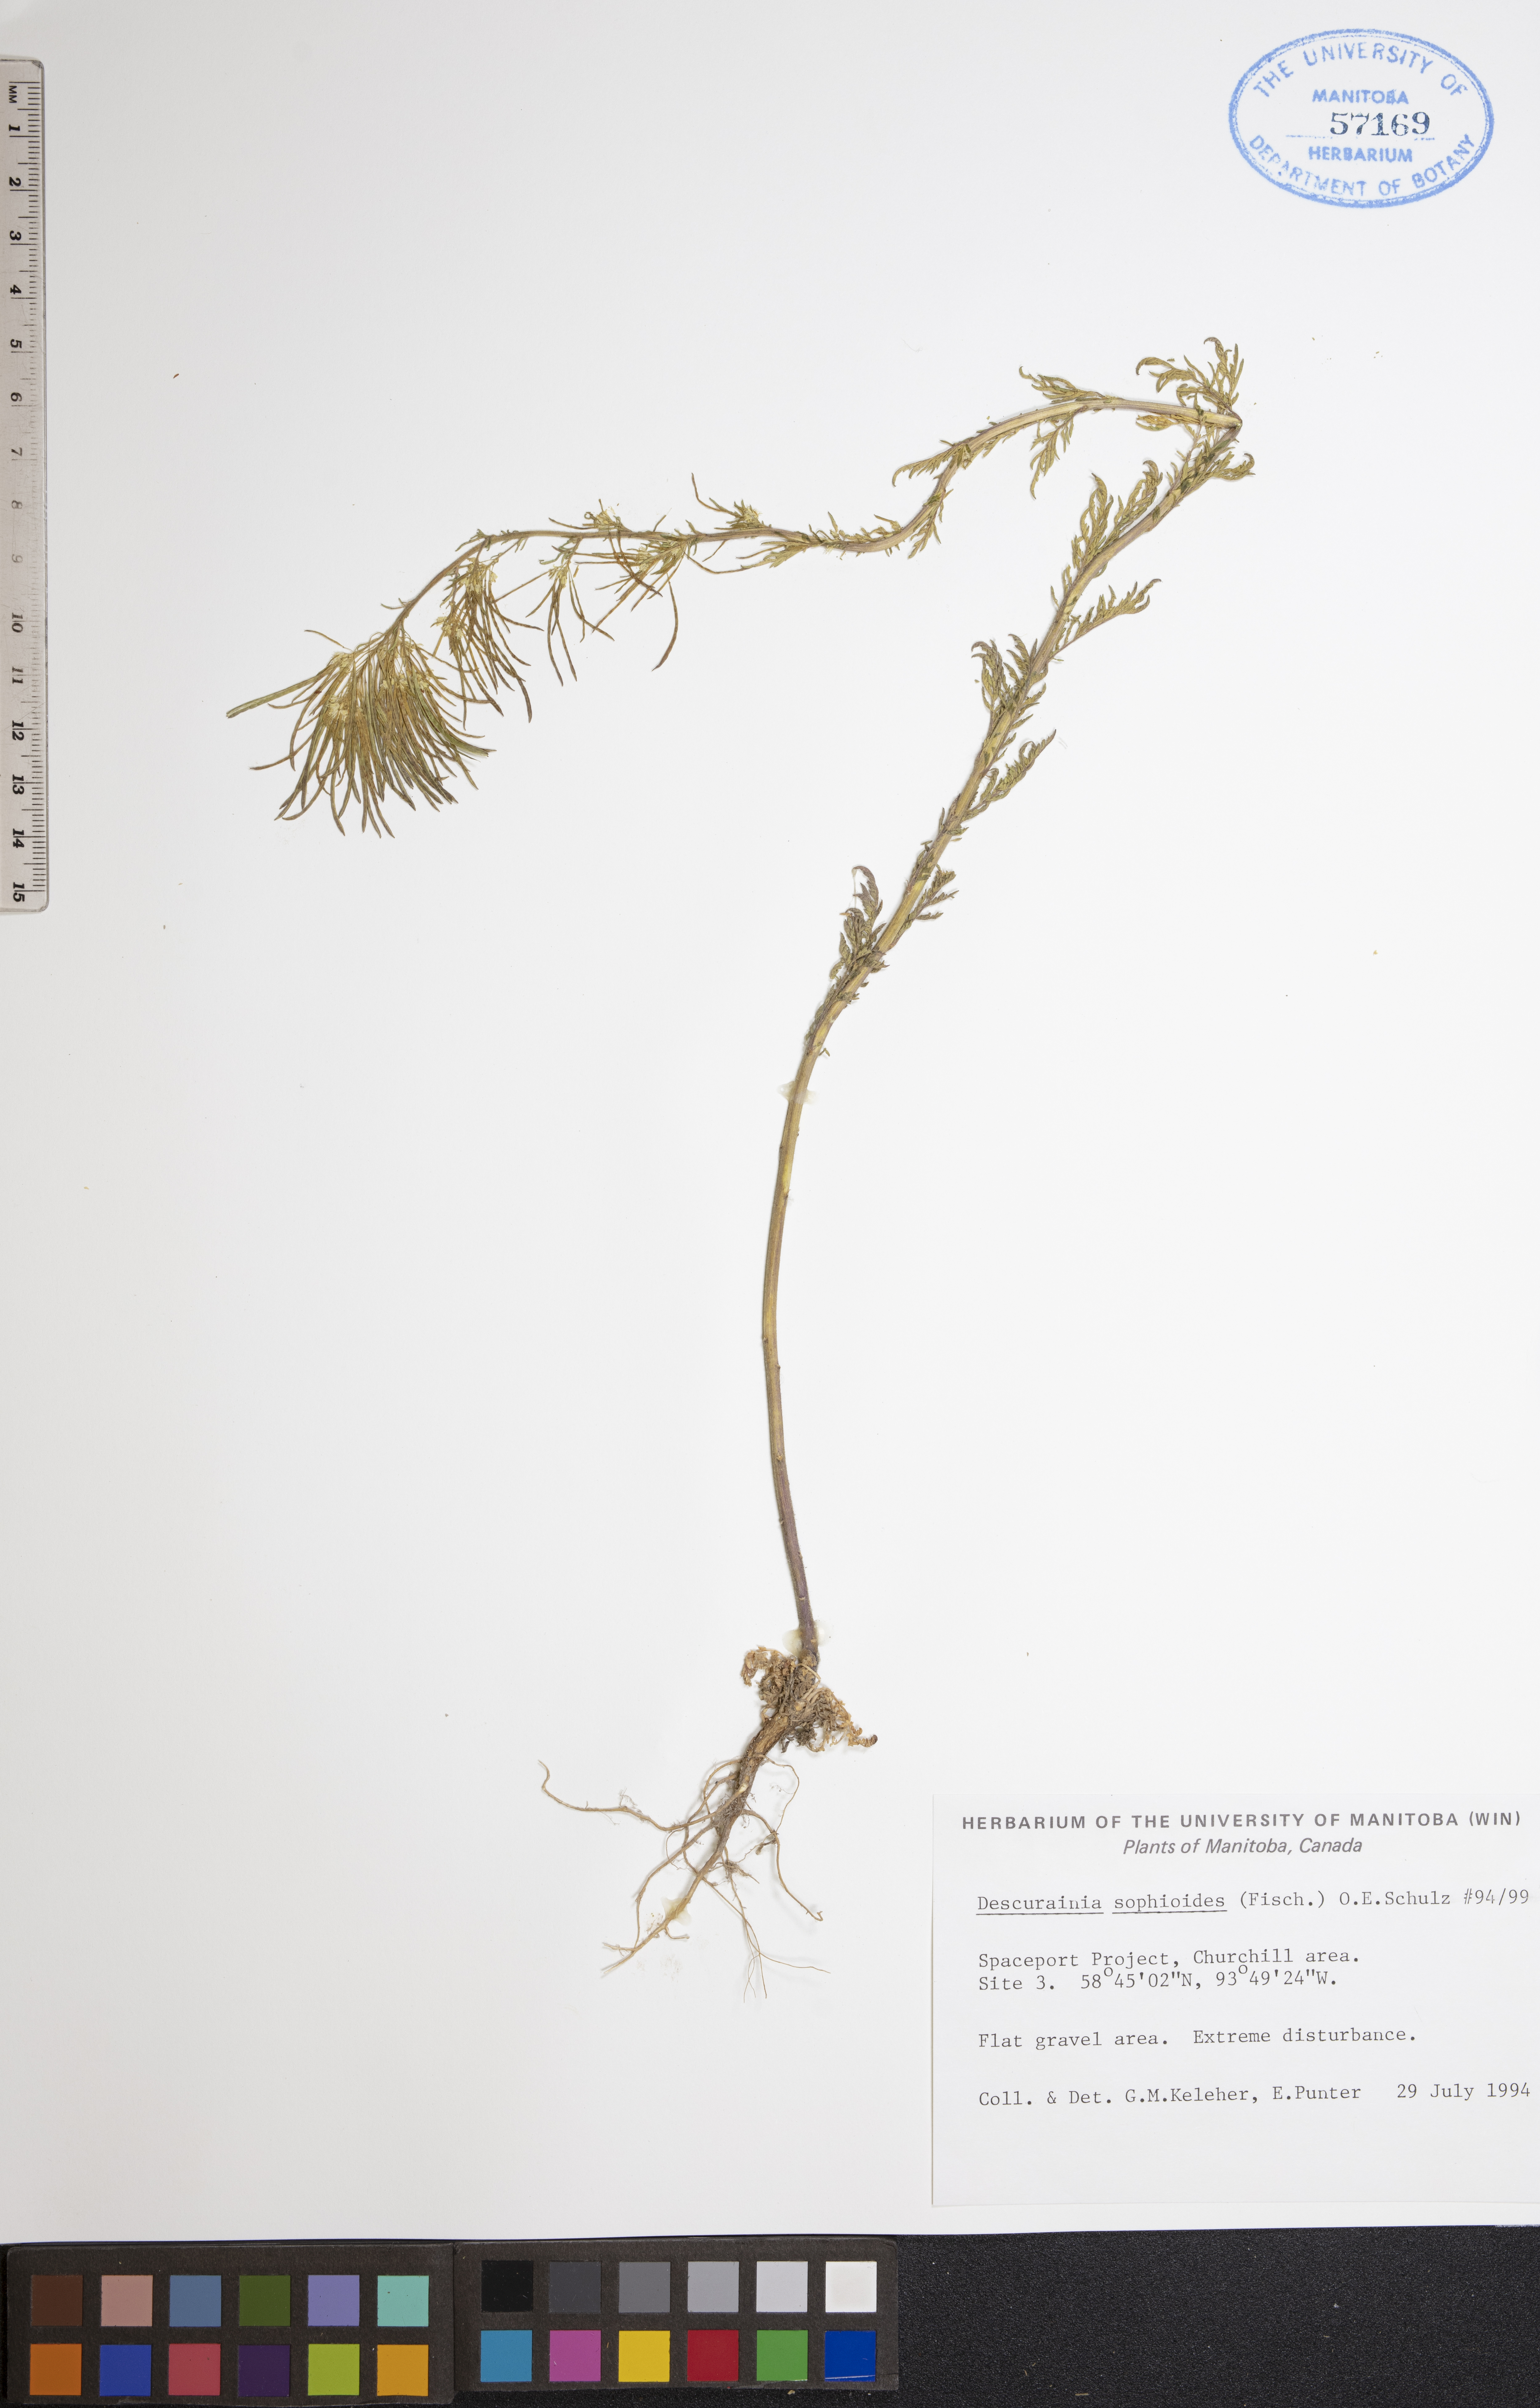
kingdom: Plantae
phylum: Tracheophyta
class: Magnoliopsida
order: Brassicales
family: Brassicaceae
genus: Descurainia
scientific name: Descurainia sophioides
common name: Northern tansy mustard
